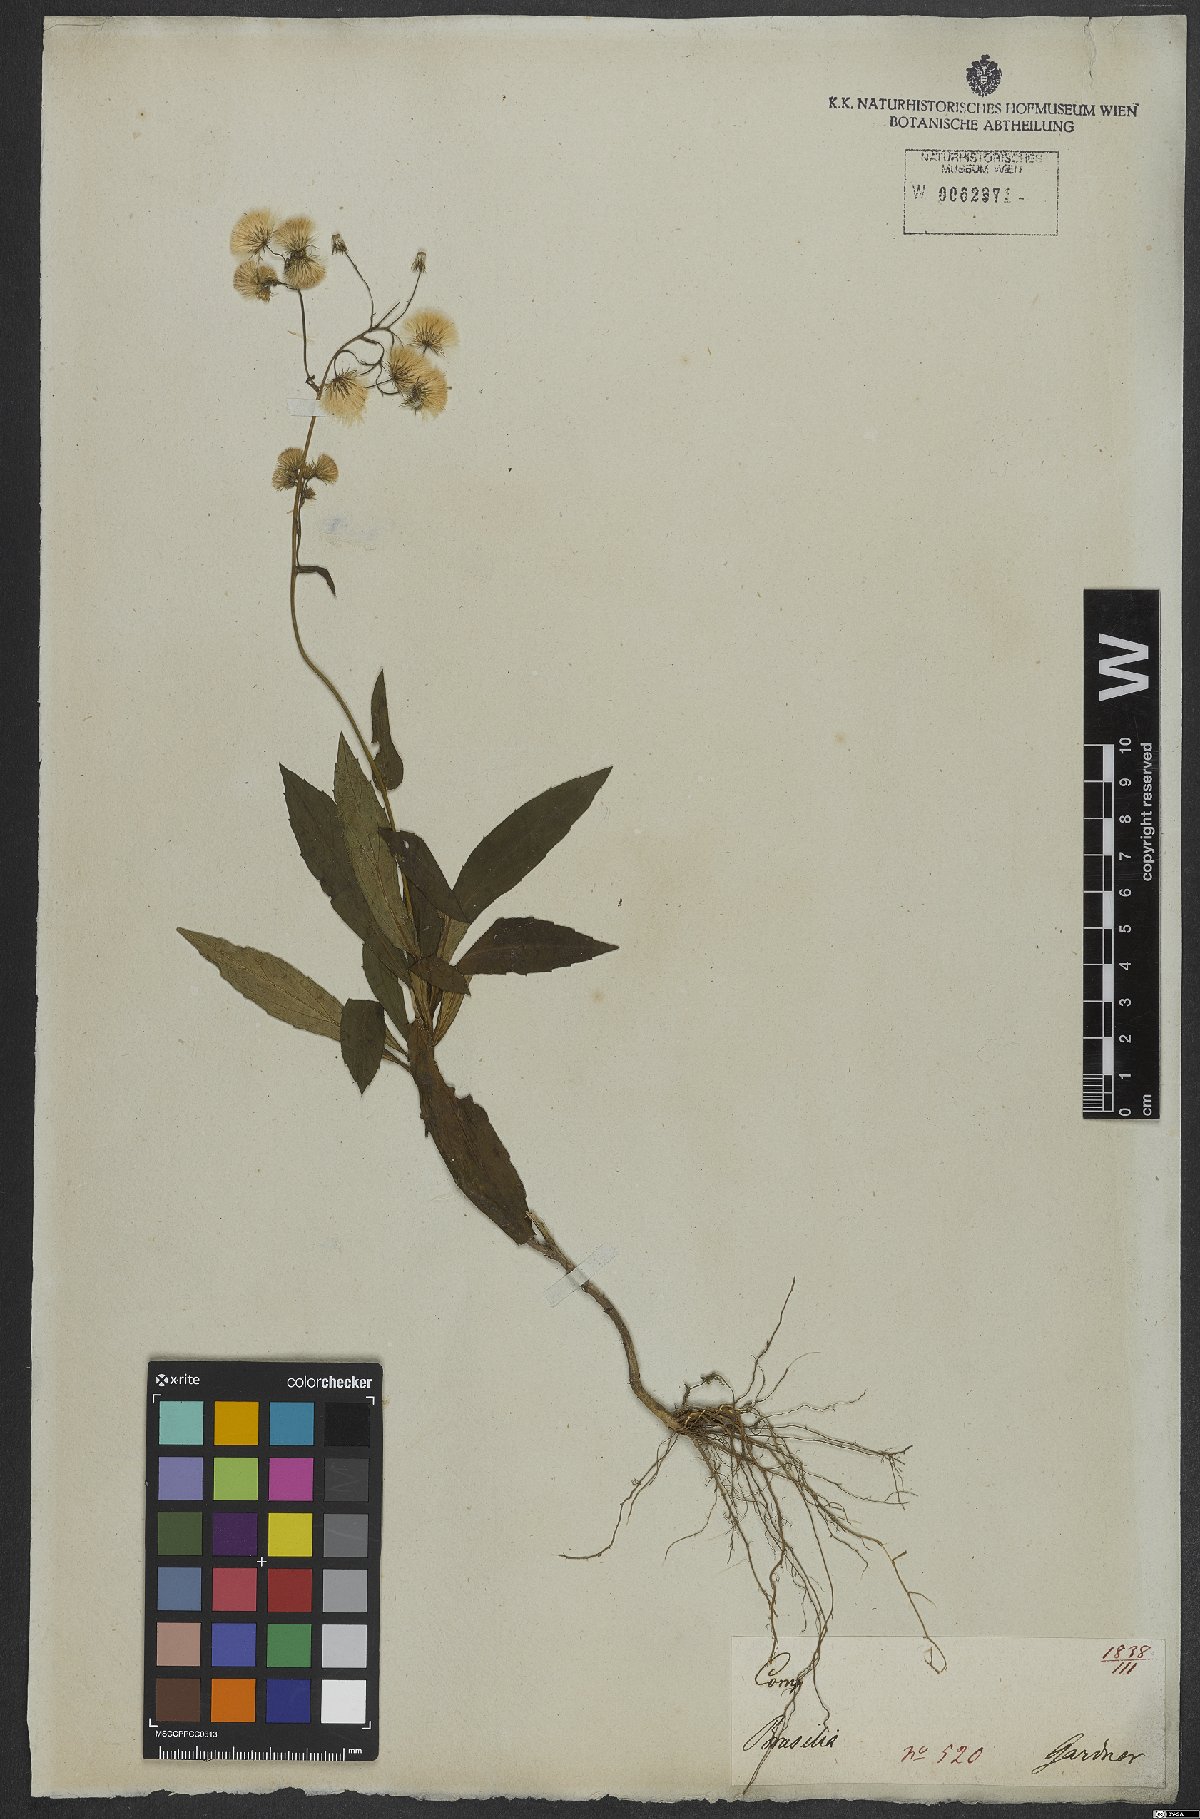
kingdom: Plantae
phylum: Tracheophyta
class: Magnoliopsida
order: Asterales
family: Asteraceae
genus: Exostigma
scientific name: Exostigma rivulare
